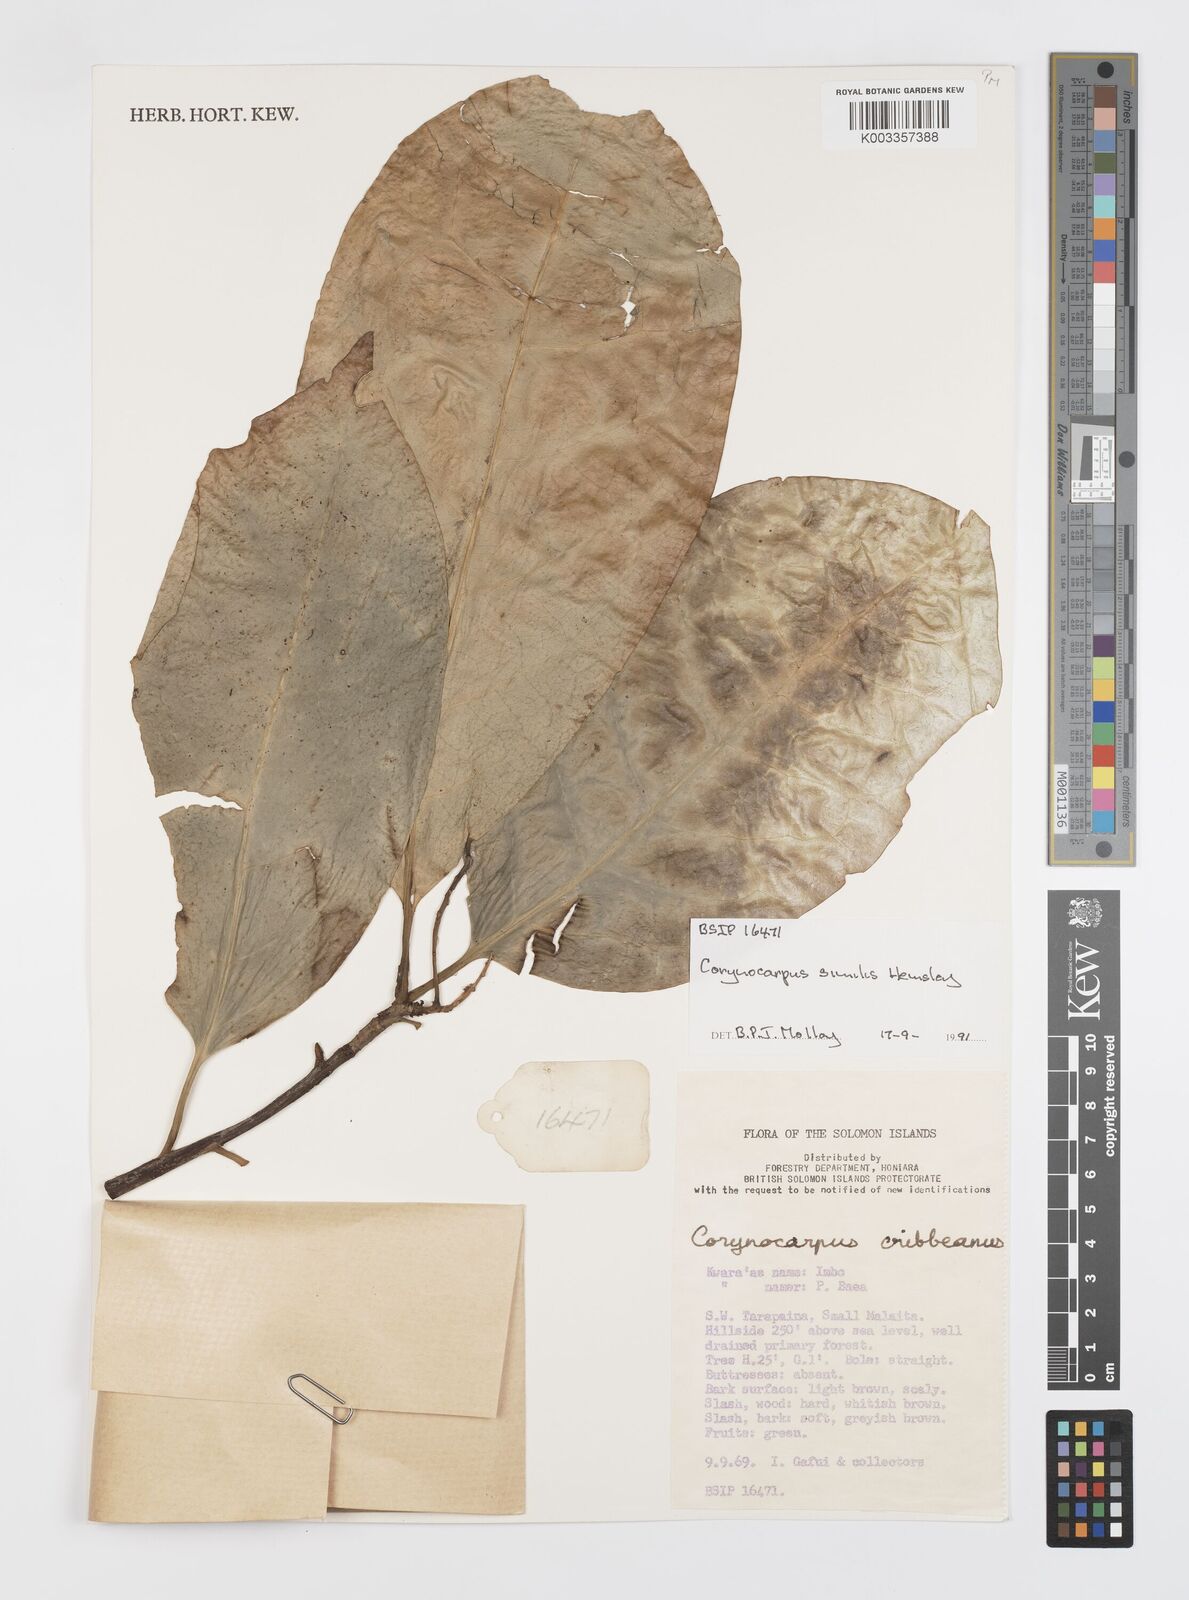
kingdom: Plantae
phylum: Tracheophyta
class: Magnoliopsida
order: Cucurbitales
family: Corynocarpaceae
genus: Corynocarpus
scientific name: Corynocarpus similis
